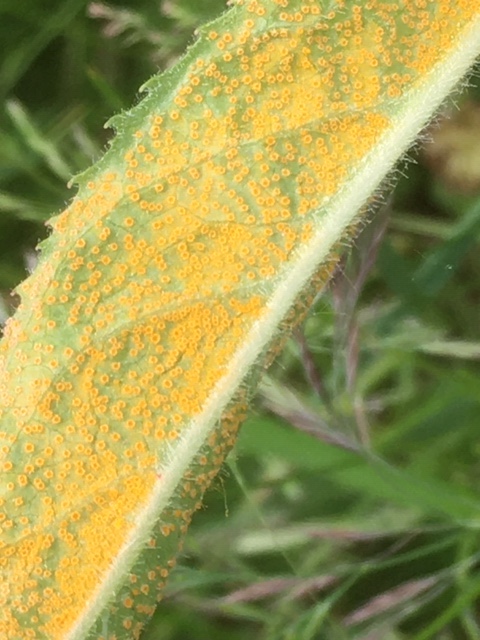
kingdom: Fungi
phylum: Basidiomycota
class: Pucciniomycetes
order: Pucciniales
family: Pucciniaceae
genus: Puccinia
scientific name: Puccinia pulverulenta
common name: dueurt-tvecellerust
